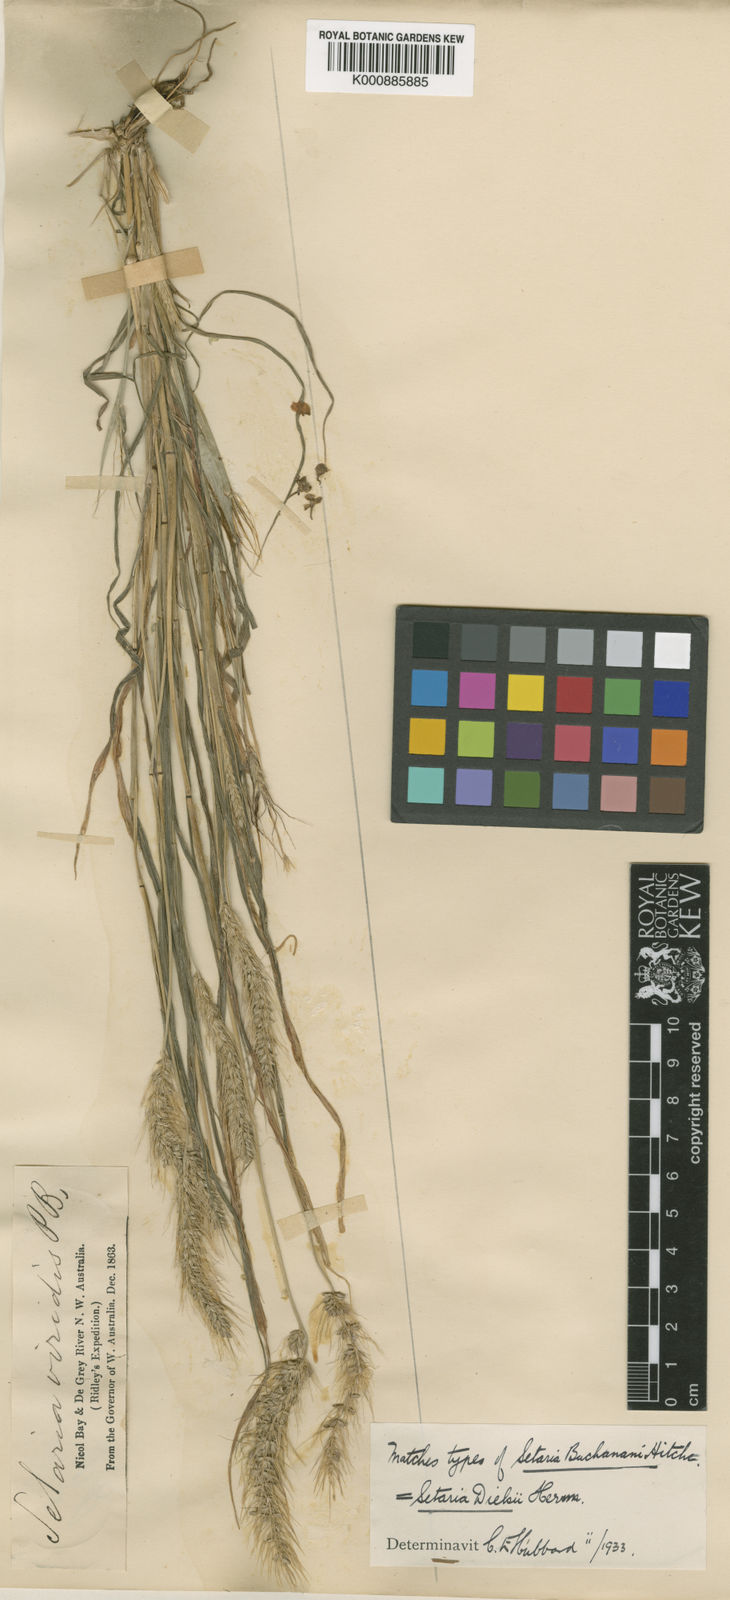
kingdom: Plantae
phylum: Tracheophyta
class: Liliopsida
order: Poales
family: Poaceae
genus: Setaria
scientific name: Setaria dielsii
